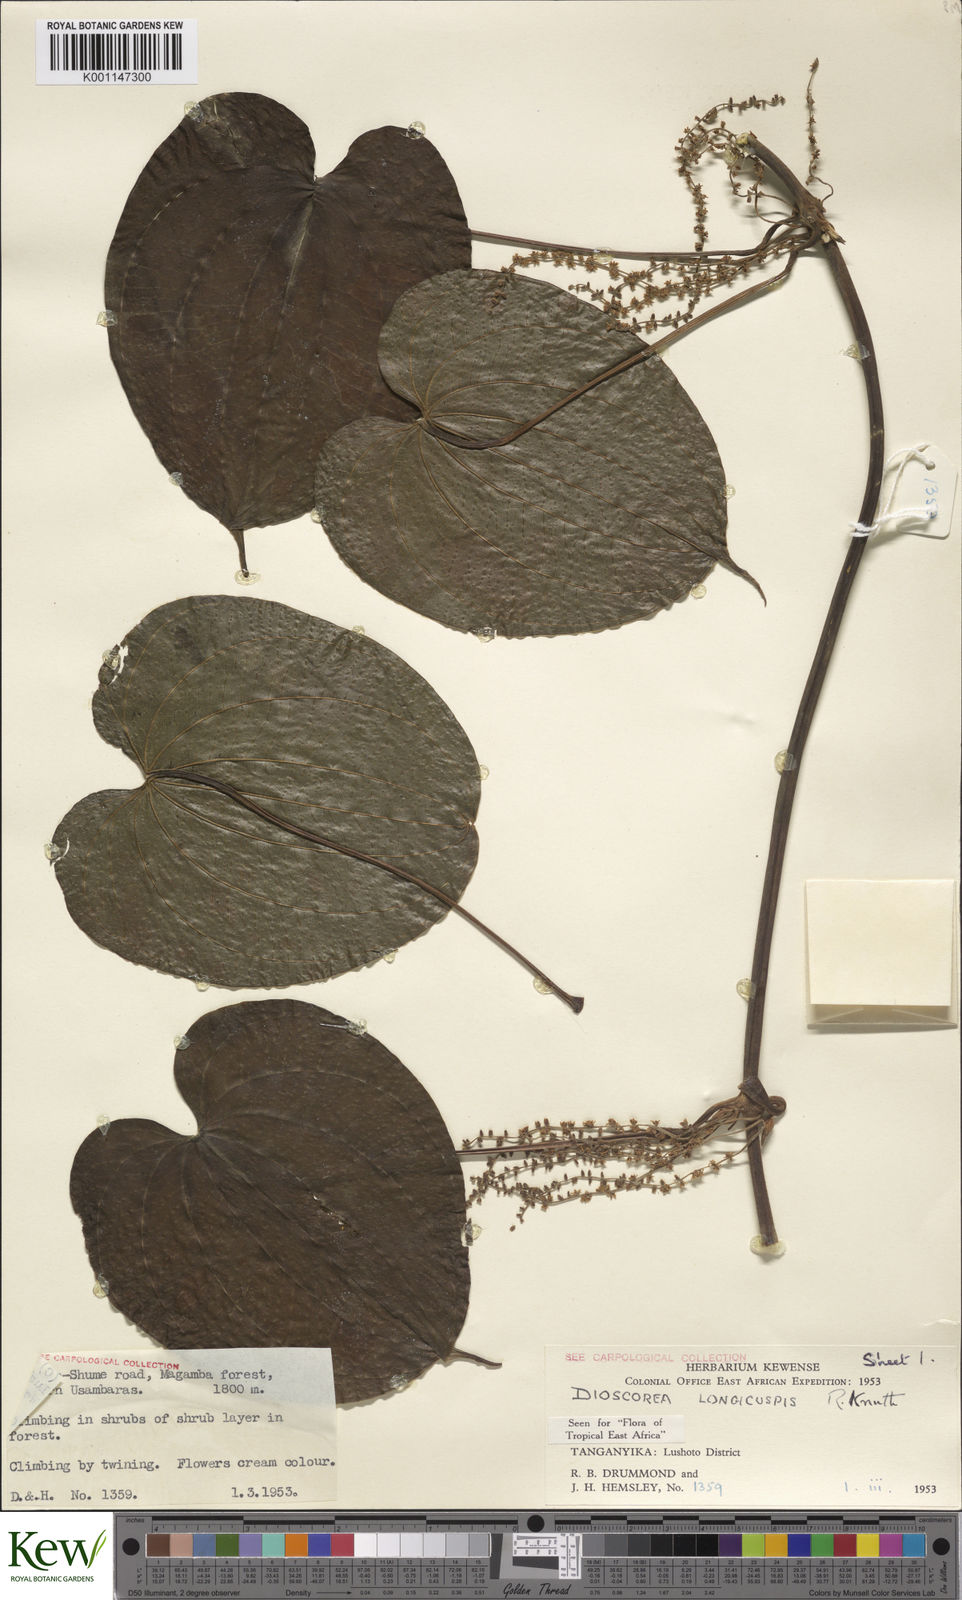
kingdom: Plantae
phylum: Tracheophyta
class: Liliopsida
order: Dioscoreales
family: Dioscoreaceae
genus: Dioscorea
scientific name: Dioscorea longicuspis
